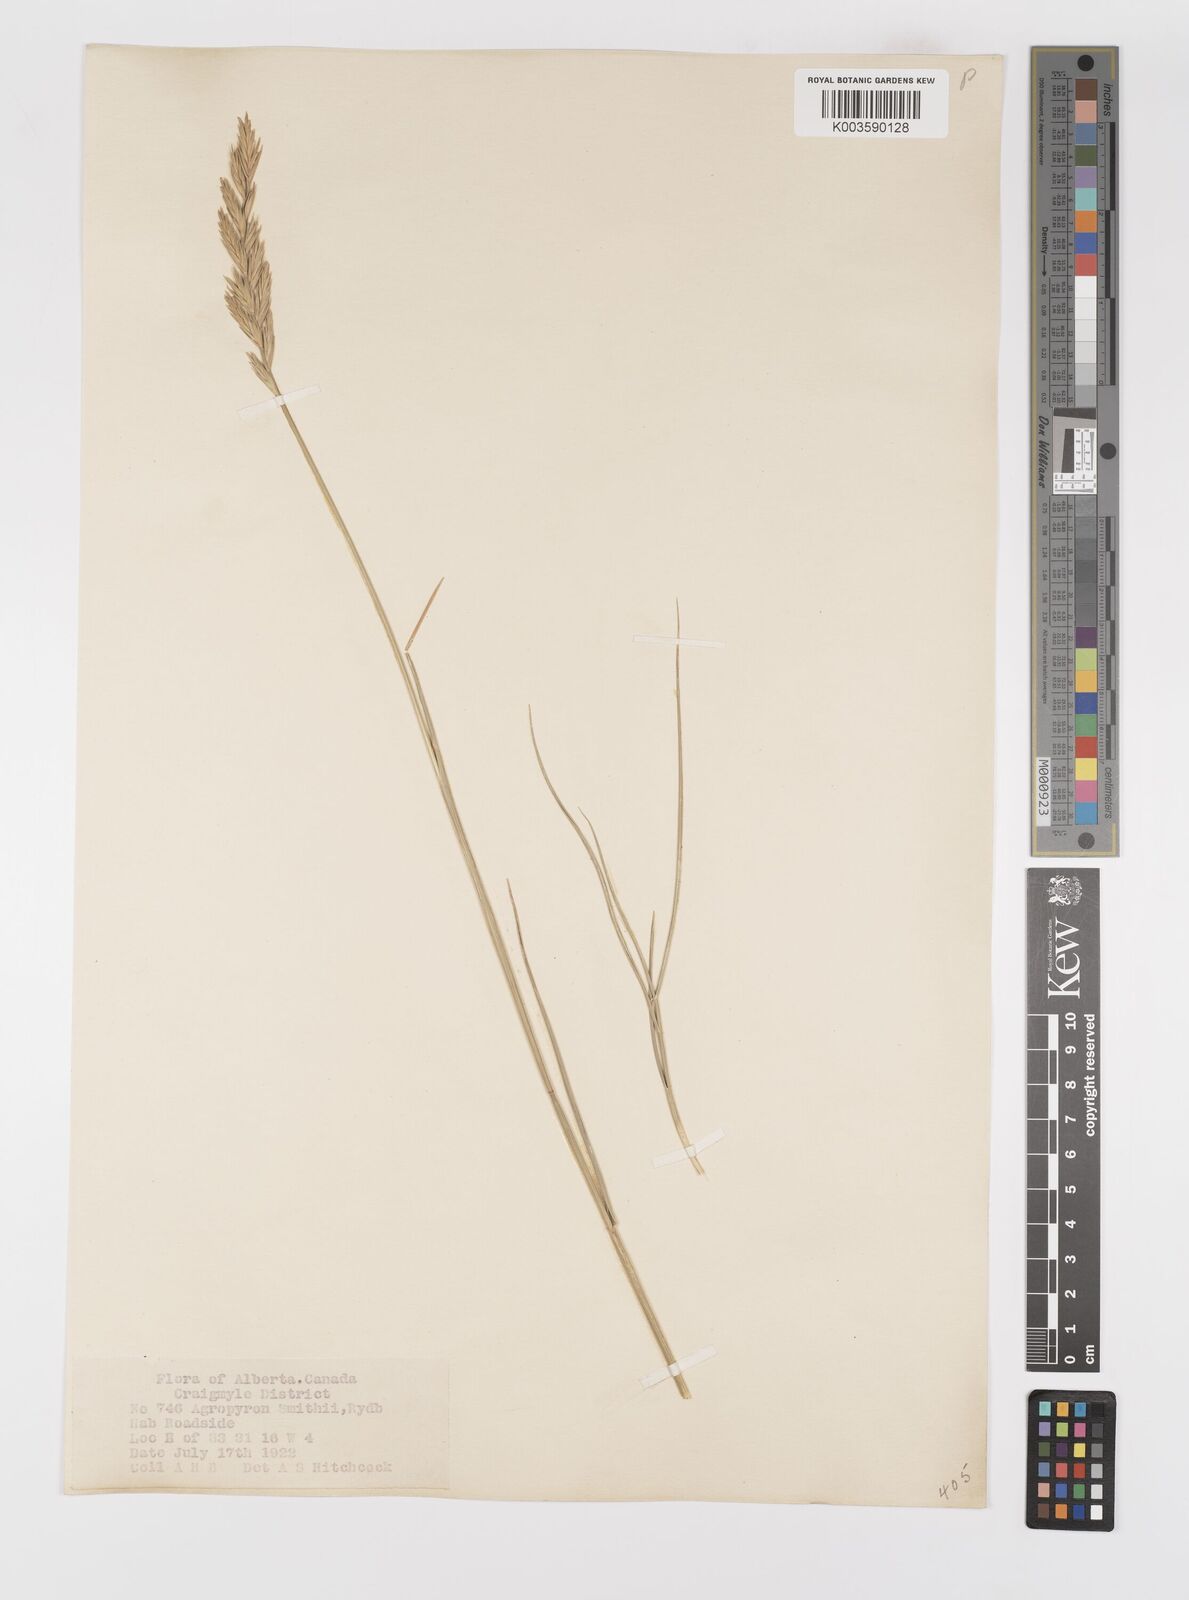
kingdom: Plantae
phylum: Tracheophyta
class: Liliopsida
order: Poales
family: Poaceae
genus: Elymus
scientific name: Elymus smithii
